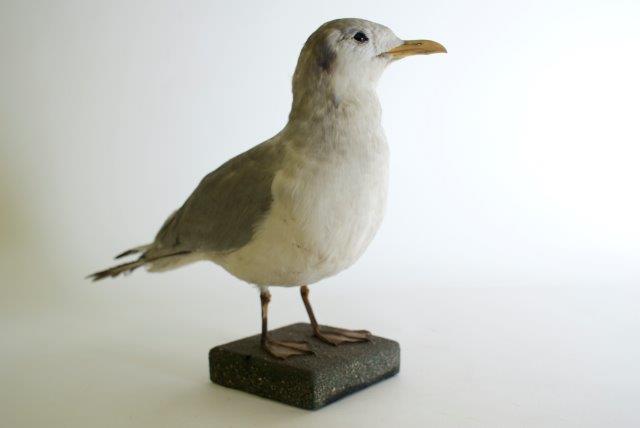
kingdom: Animalia
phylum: Chordata
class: Aves
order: Charadriiformes
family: Laridae
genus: Rissa
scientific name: Rissa tridactyla
